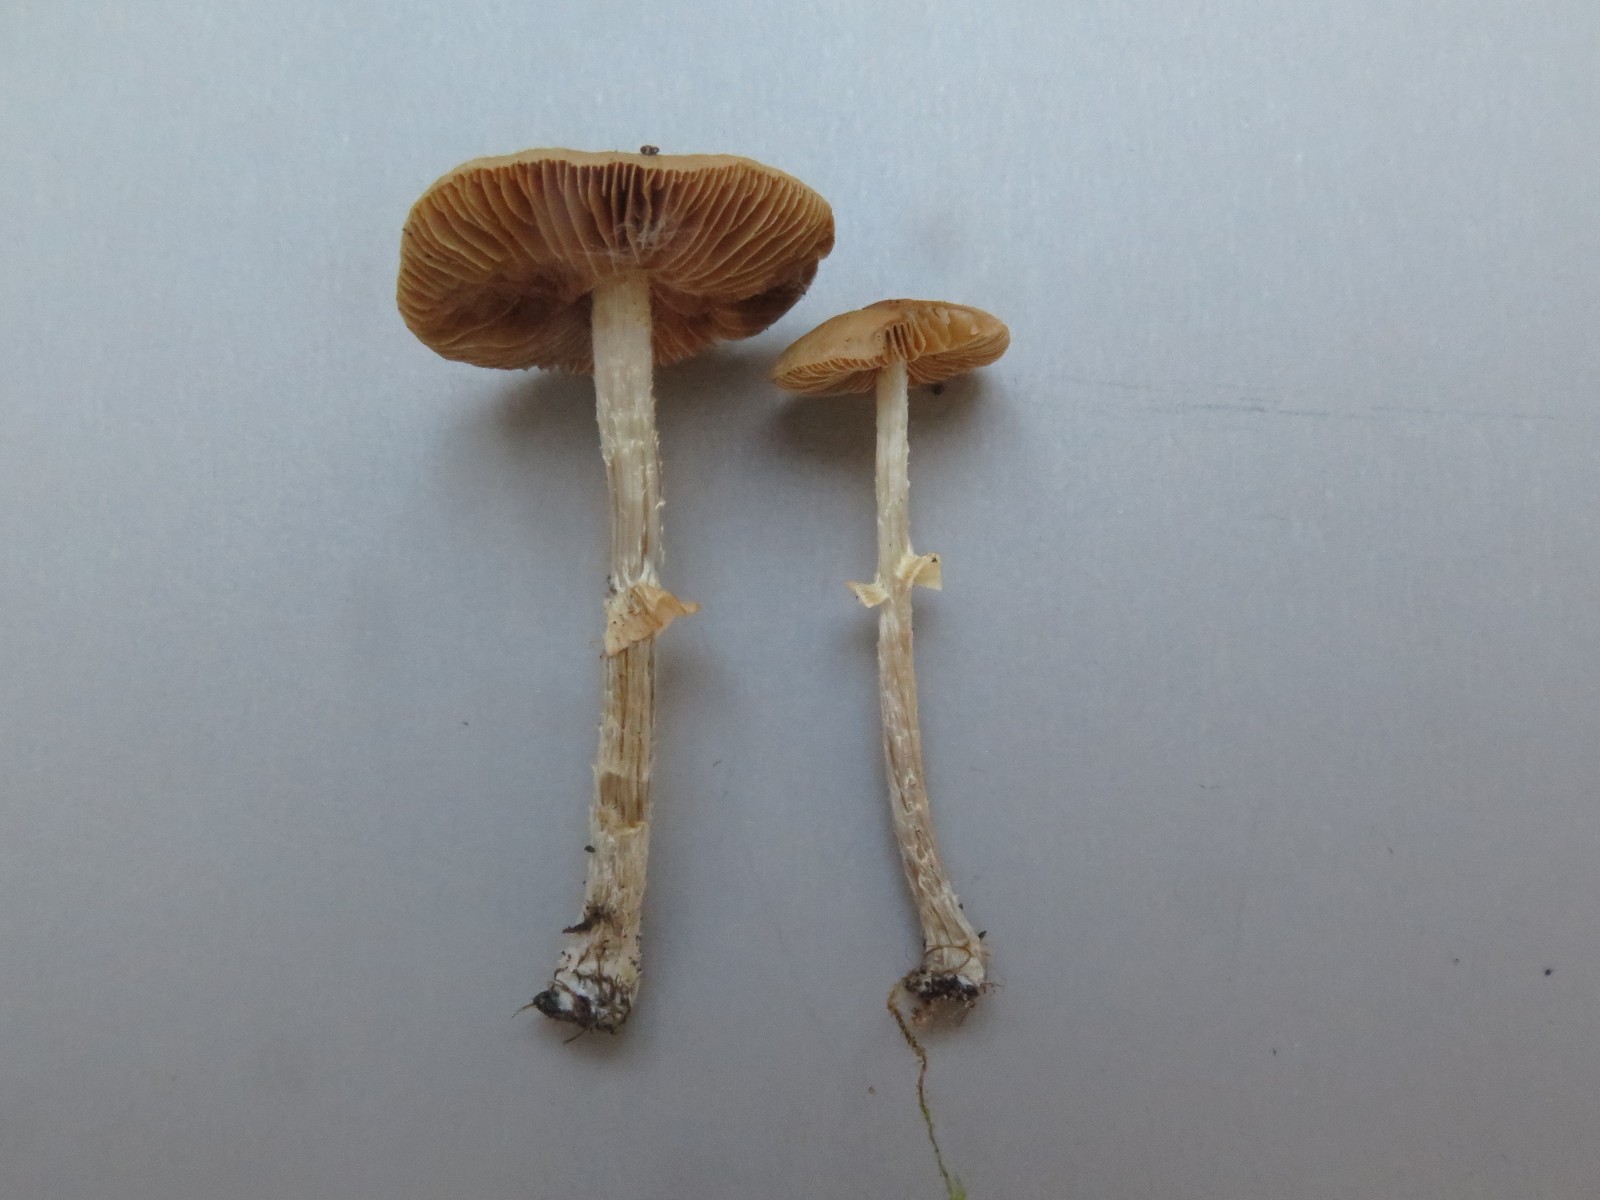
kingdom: Fungi
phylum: Basidiomycota
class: Agaricomycetes
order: Agaricales
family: Bolbitiaceae
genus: Conocybe
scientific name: Conocybe arrhenii
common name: ring-dansehat
